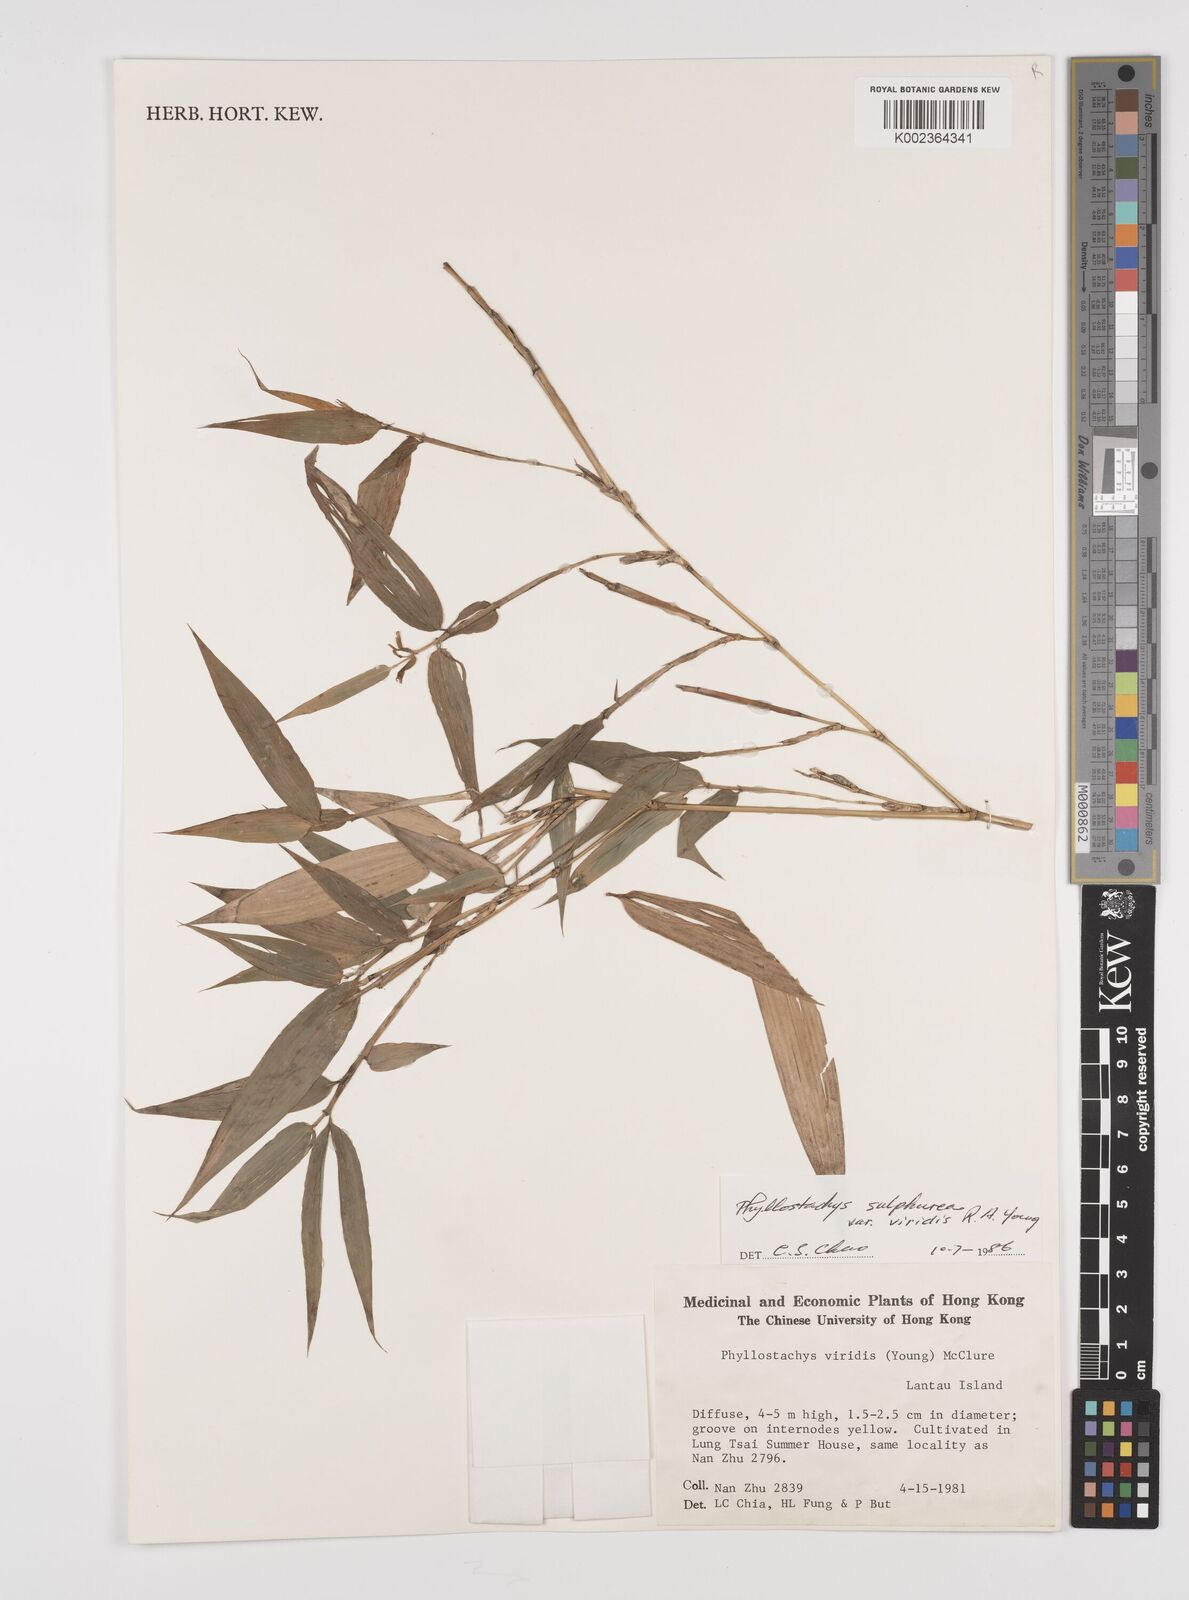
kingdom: Plantae
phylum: Tracheophyta
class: Liliopsida
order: Poales
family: Poaceae
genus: Phyllostachys
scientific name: Phyllostachys sulphurea
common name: Sulphur bamboo
